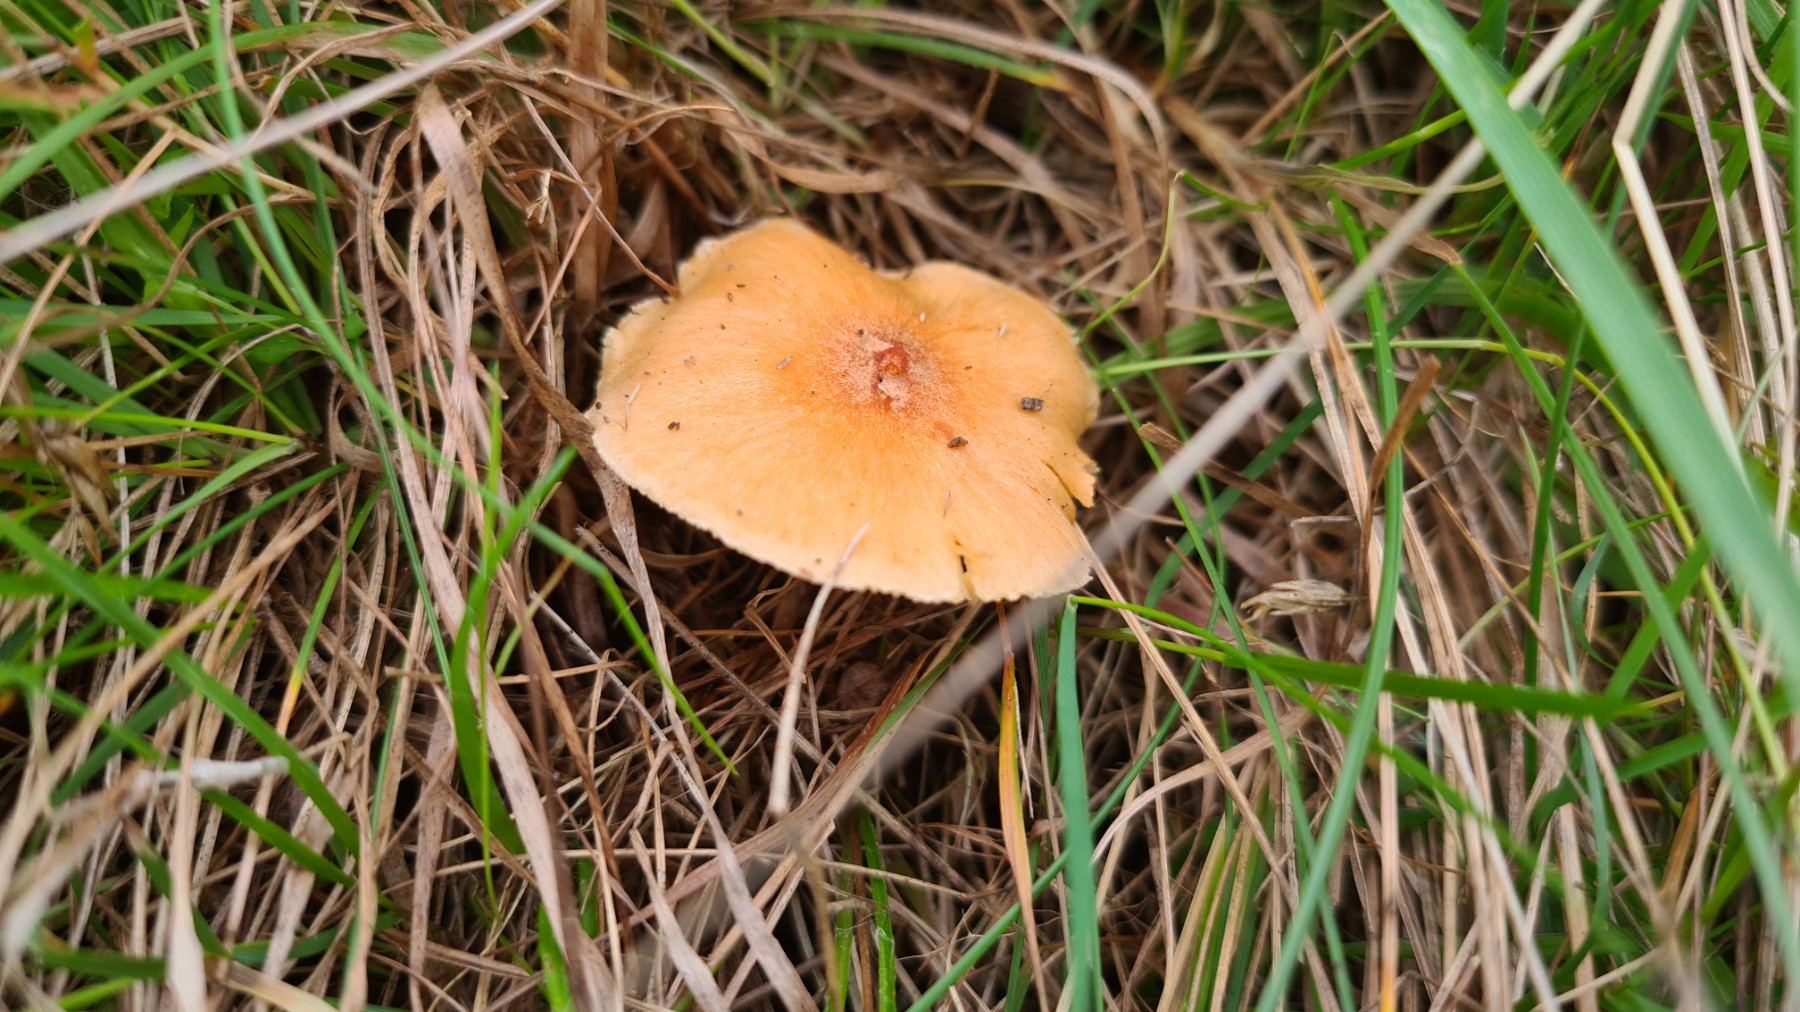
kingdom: Fungi
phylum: Basidiomycota
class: Agaricomycetes
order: Agaricales
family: Hygrophoraceae
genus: Cuphophyllus
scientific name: Cuphophyllus pratensis
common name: eng-vokshat
